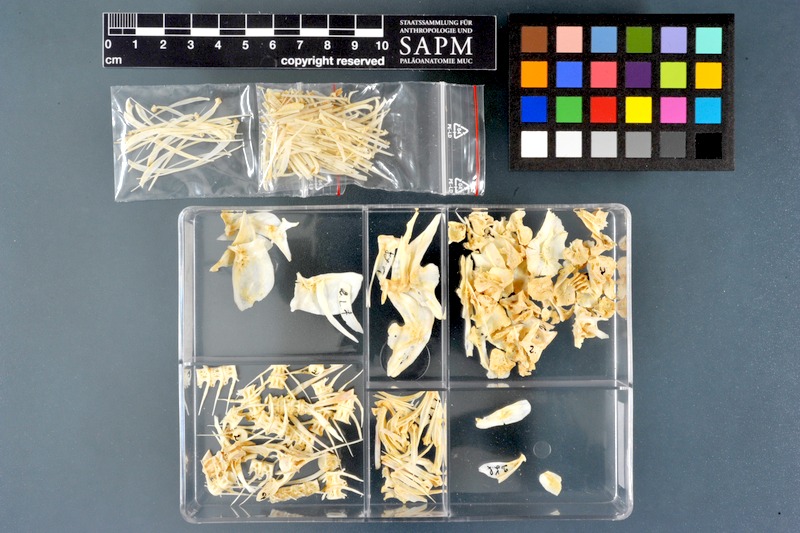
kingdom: Animalia
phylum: Chordata
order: Cypriniformes
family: Cyprinidae
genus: Labeo
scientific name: Labeo forskalii
